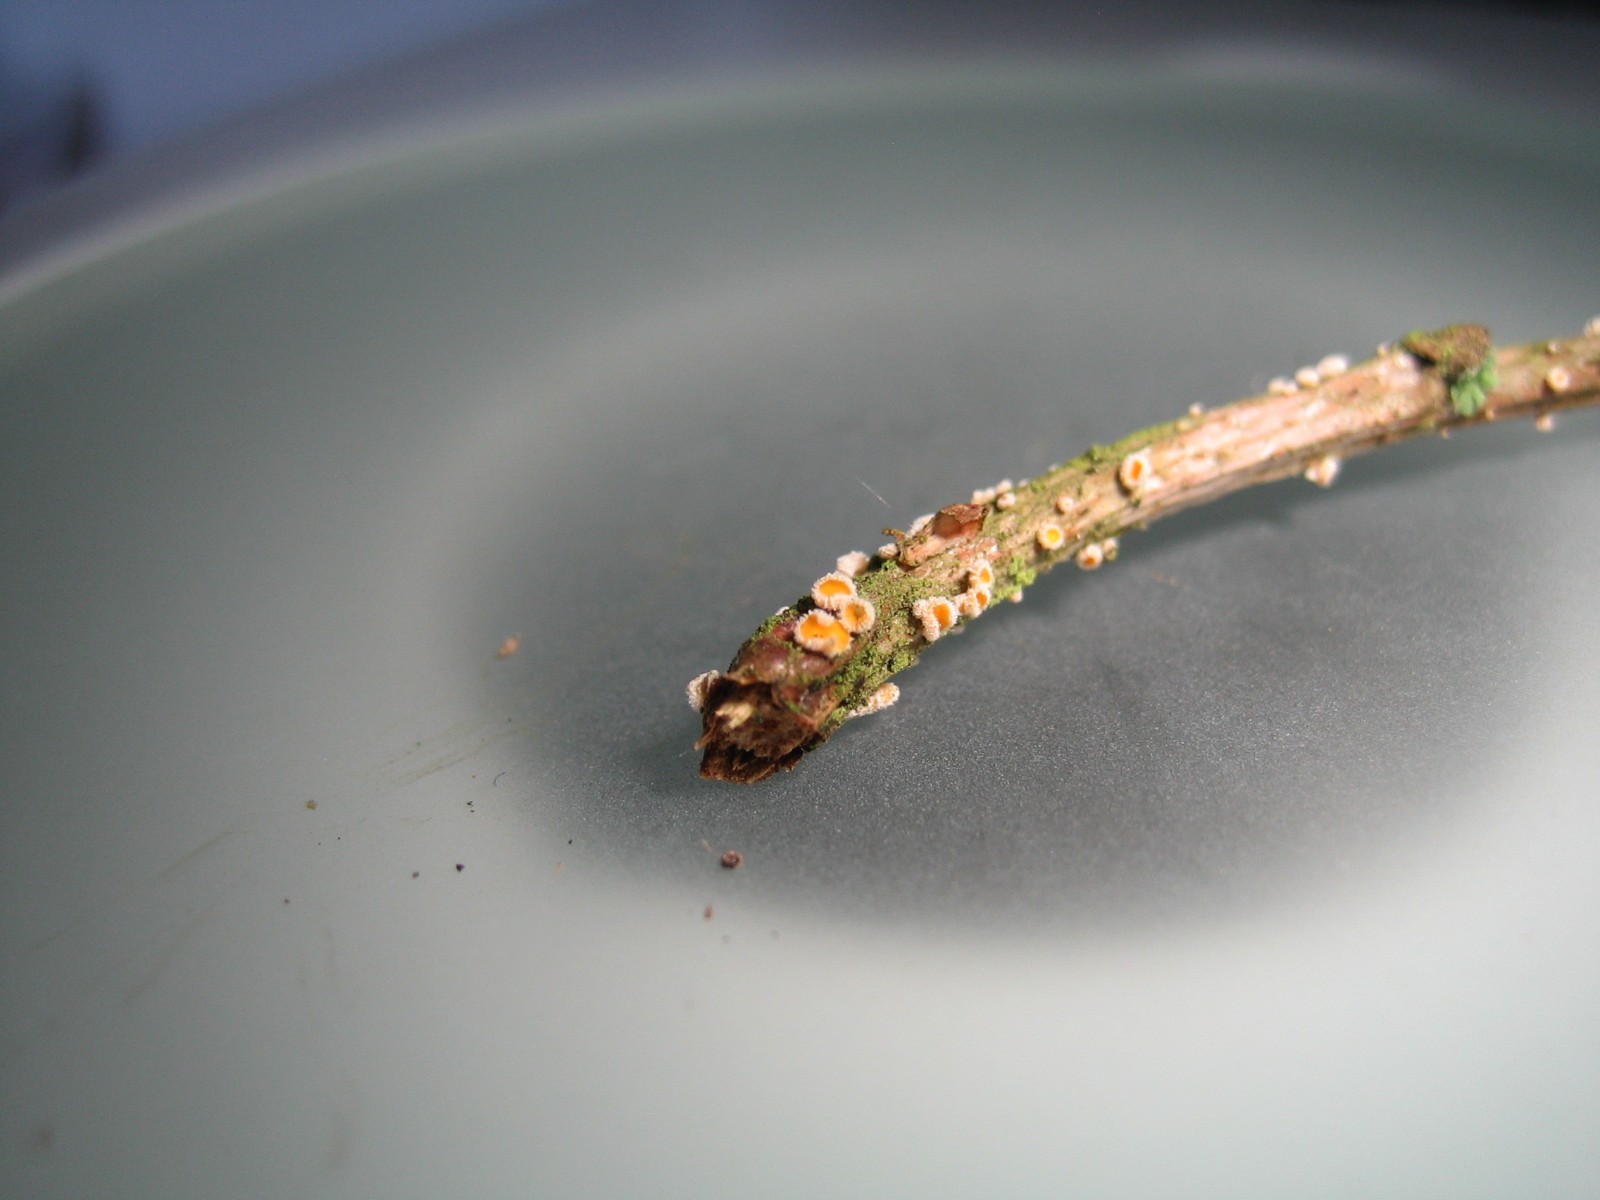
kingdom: Fungi
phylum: Ascomycota
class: Leotiomycetes
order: Helotiales
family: Lachnaceae
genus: Capitotricha
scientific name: Capitotricha bicolor
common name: prægtig frynseskive
